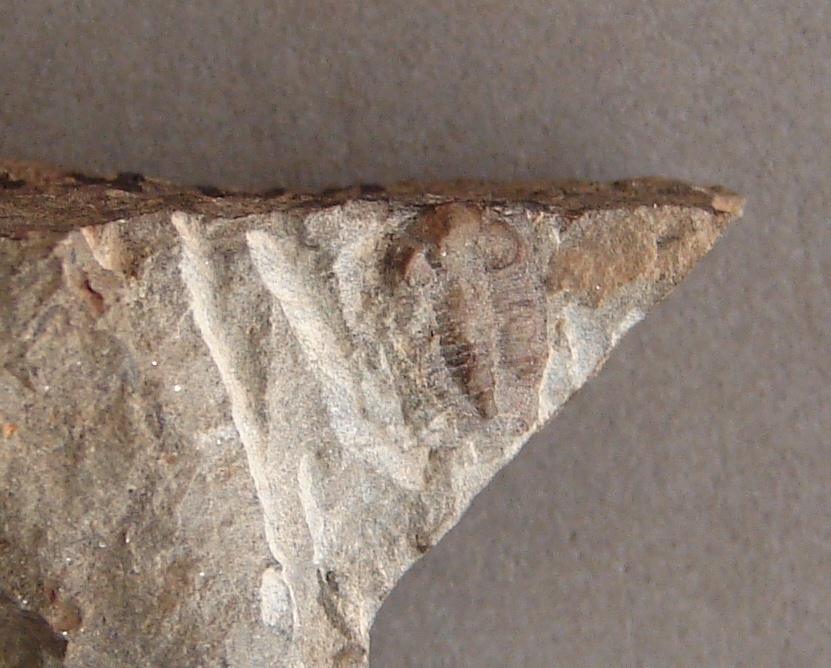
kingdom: Animalia
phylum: Arthropoda
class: Trilobita
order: Phacopida
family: Acastidae
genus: Acastava
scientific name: Acastava
